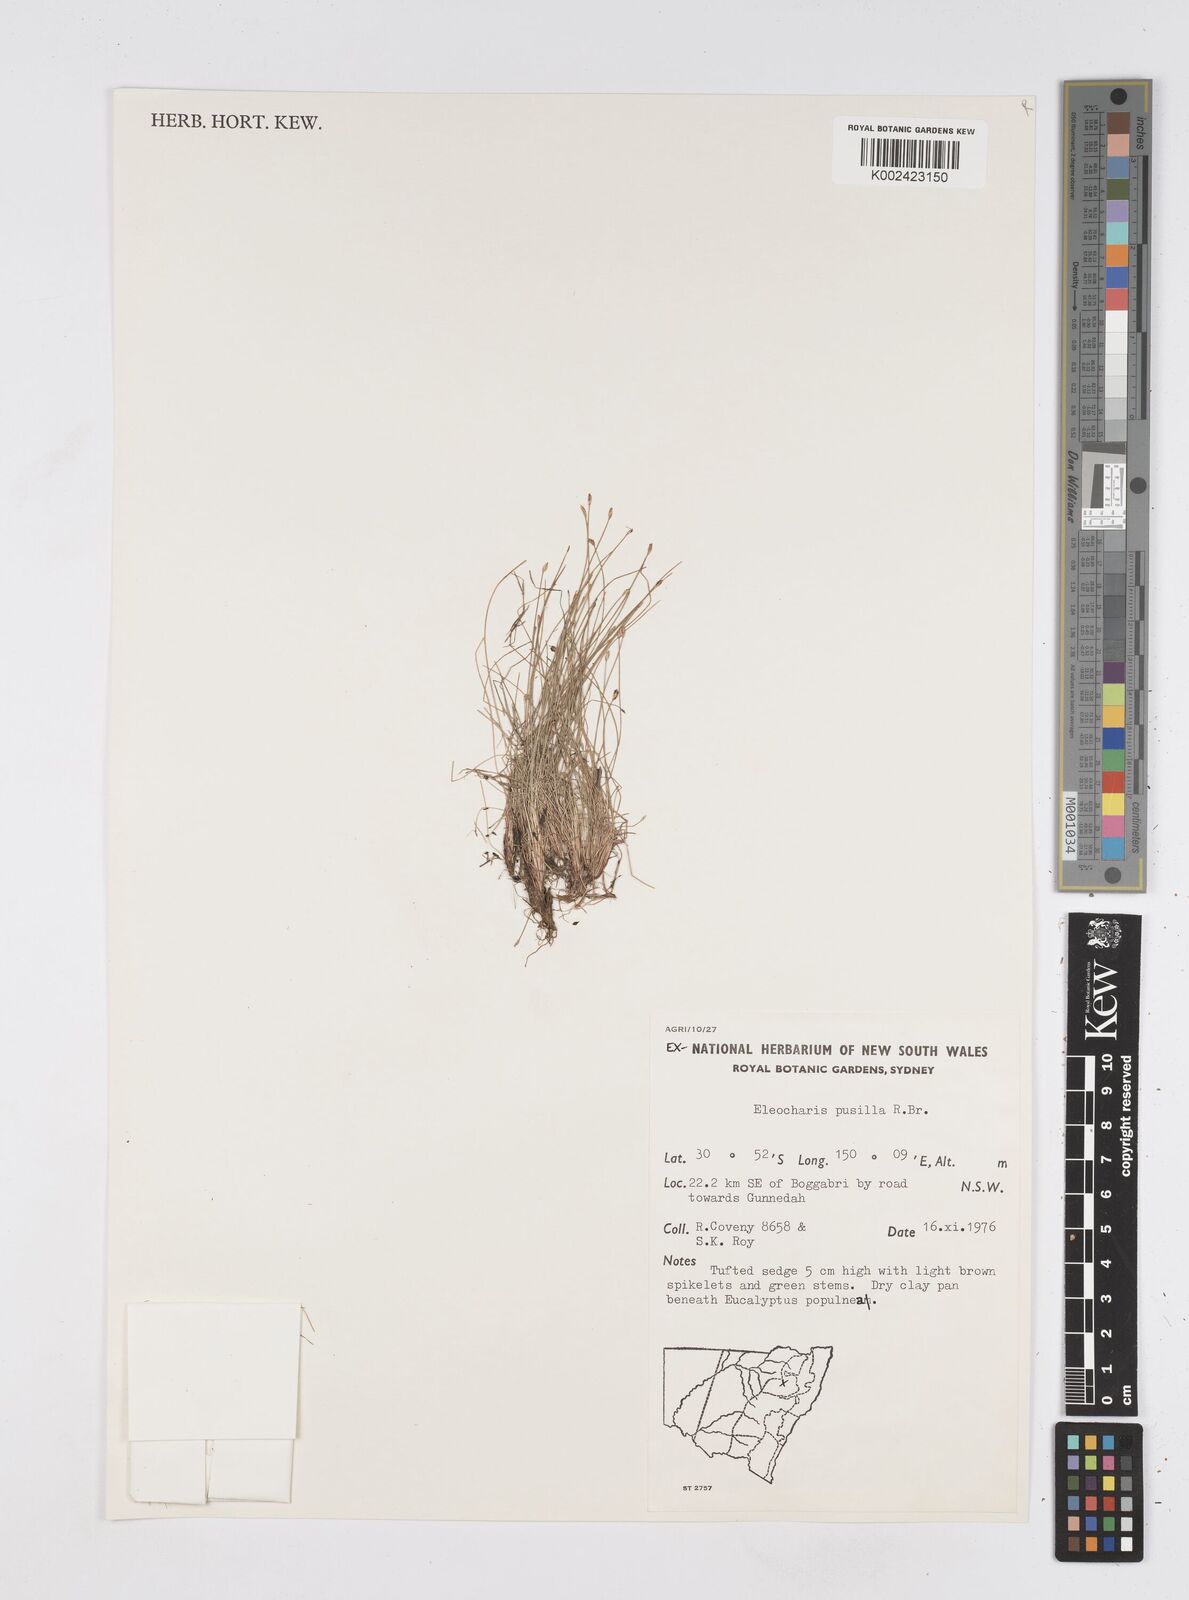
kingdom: Plantae
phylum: Tracheophyta
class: Liliopsida
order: Poales
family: Cyperaceae
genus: Eleocharis
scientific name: Eleocharis pusilla
